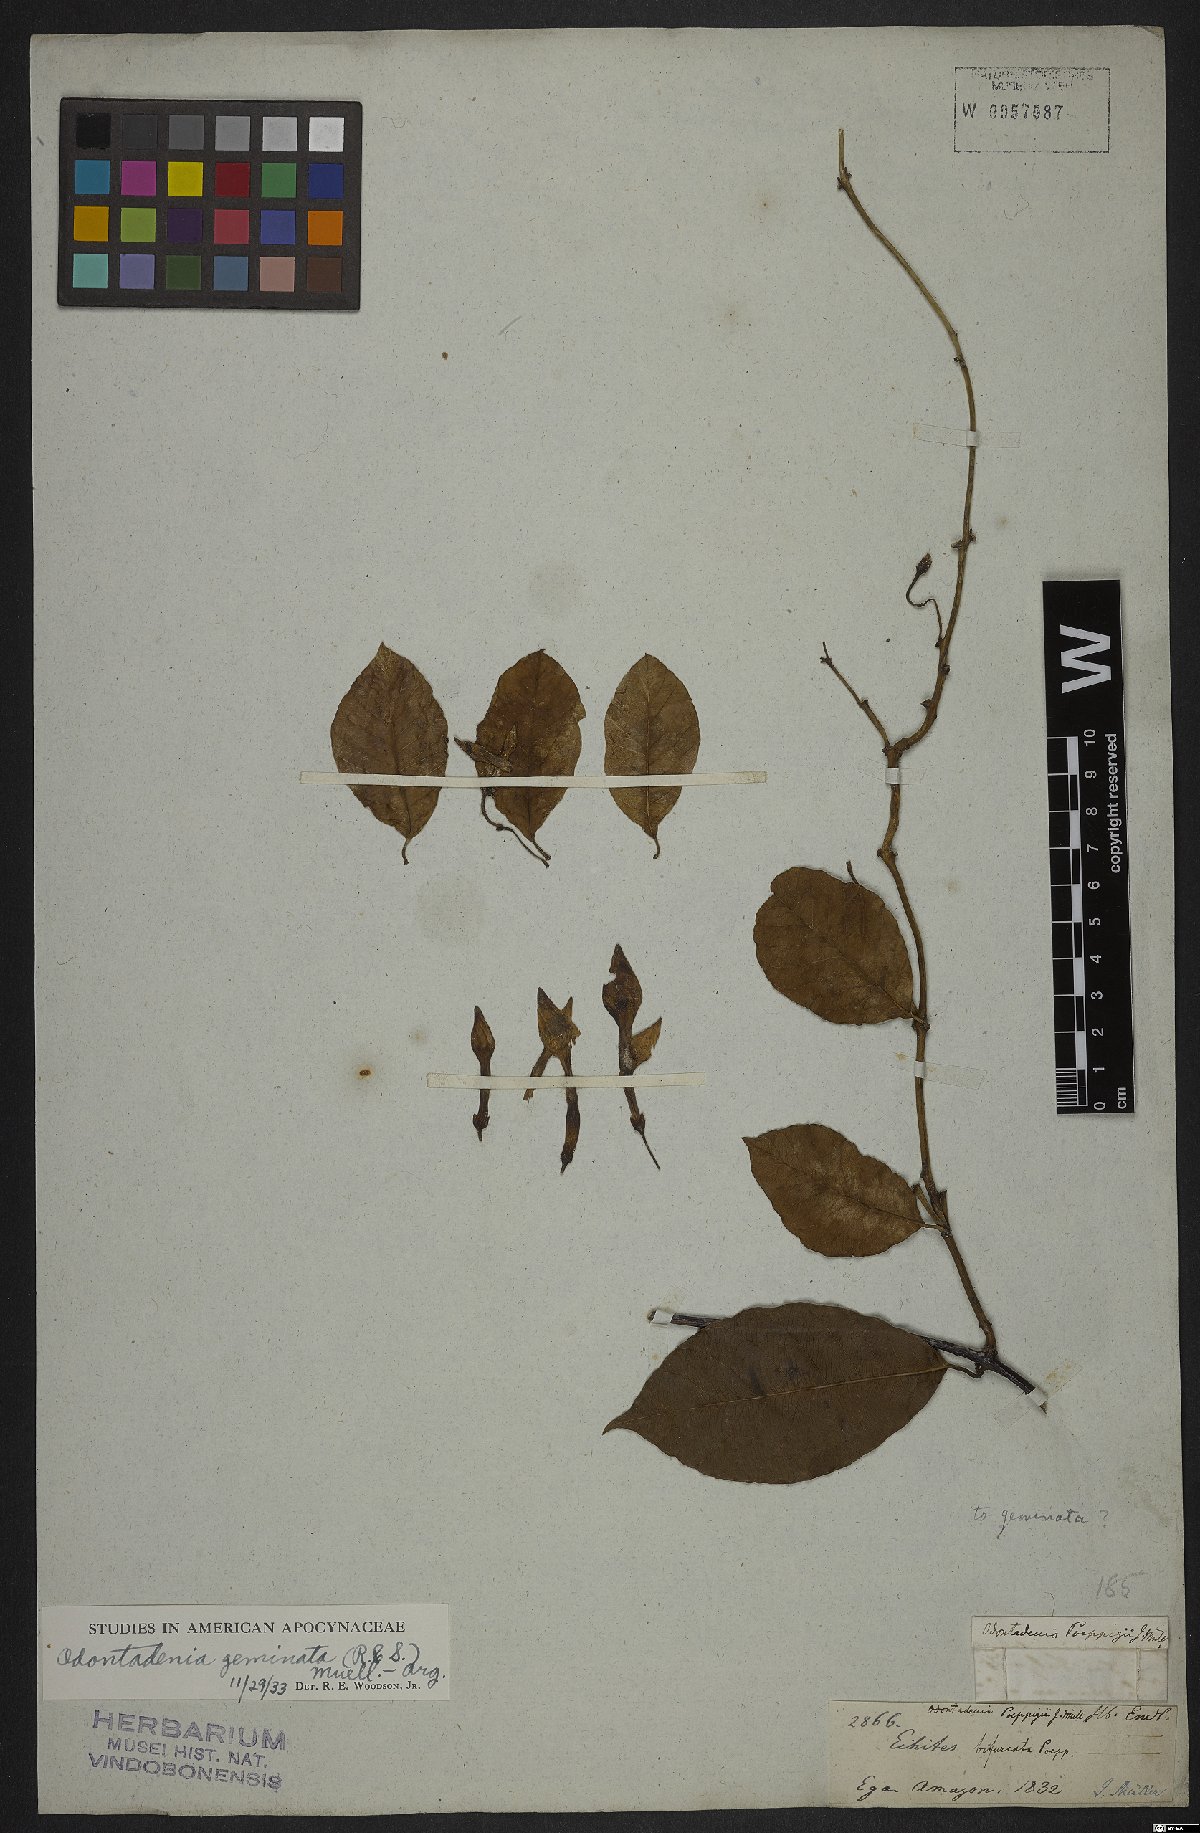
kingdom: Plantae
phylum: Tracheophyta
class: Magnoliopsida
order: Gentianales
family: Apocynaceae
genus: Odontadenia
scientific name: Odontadenia geminata
